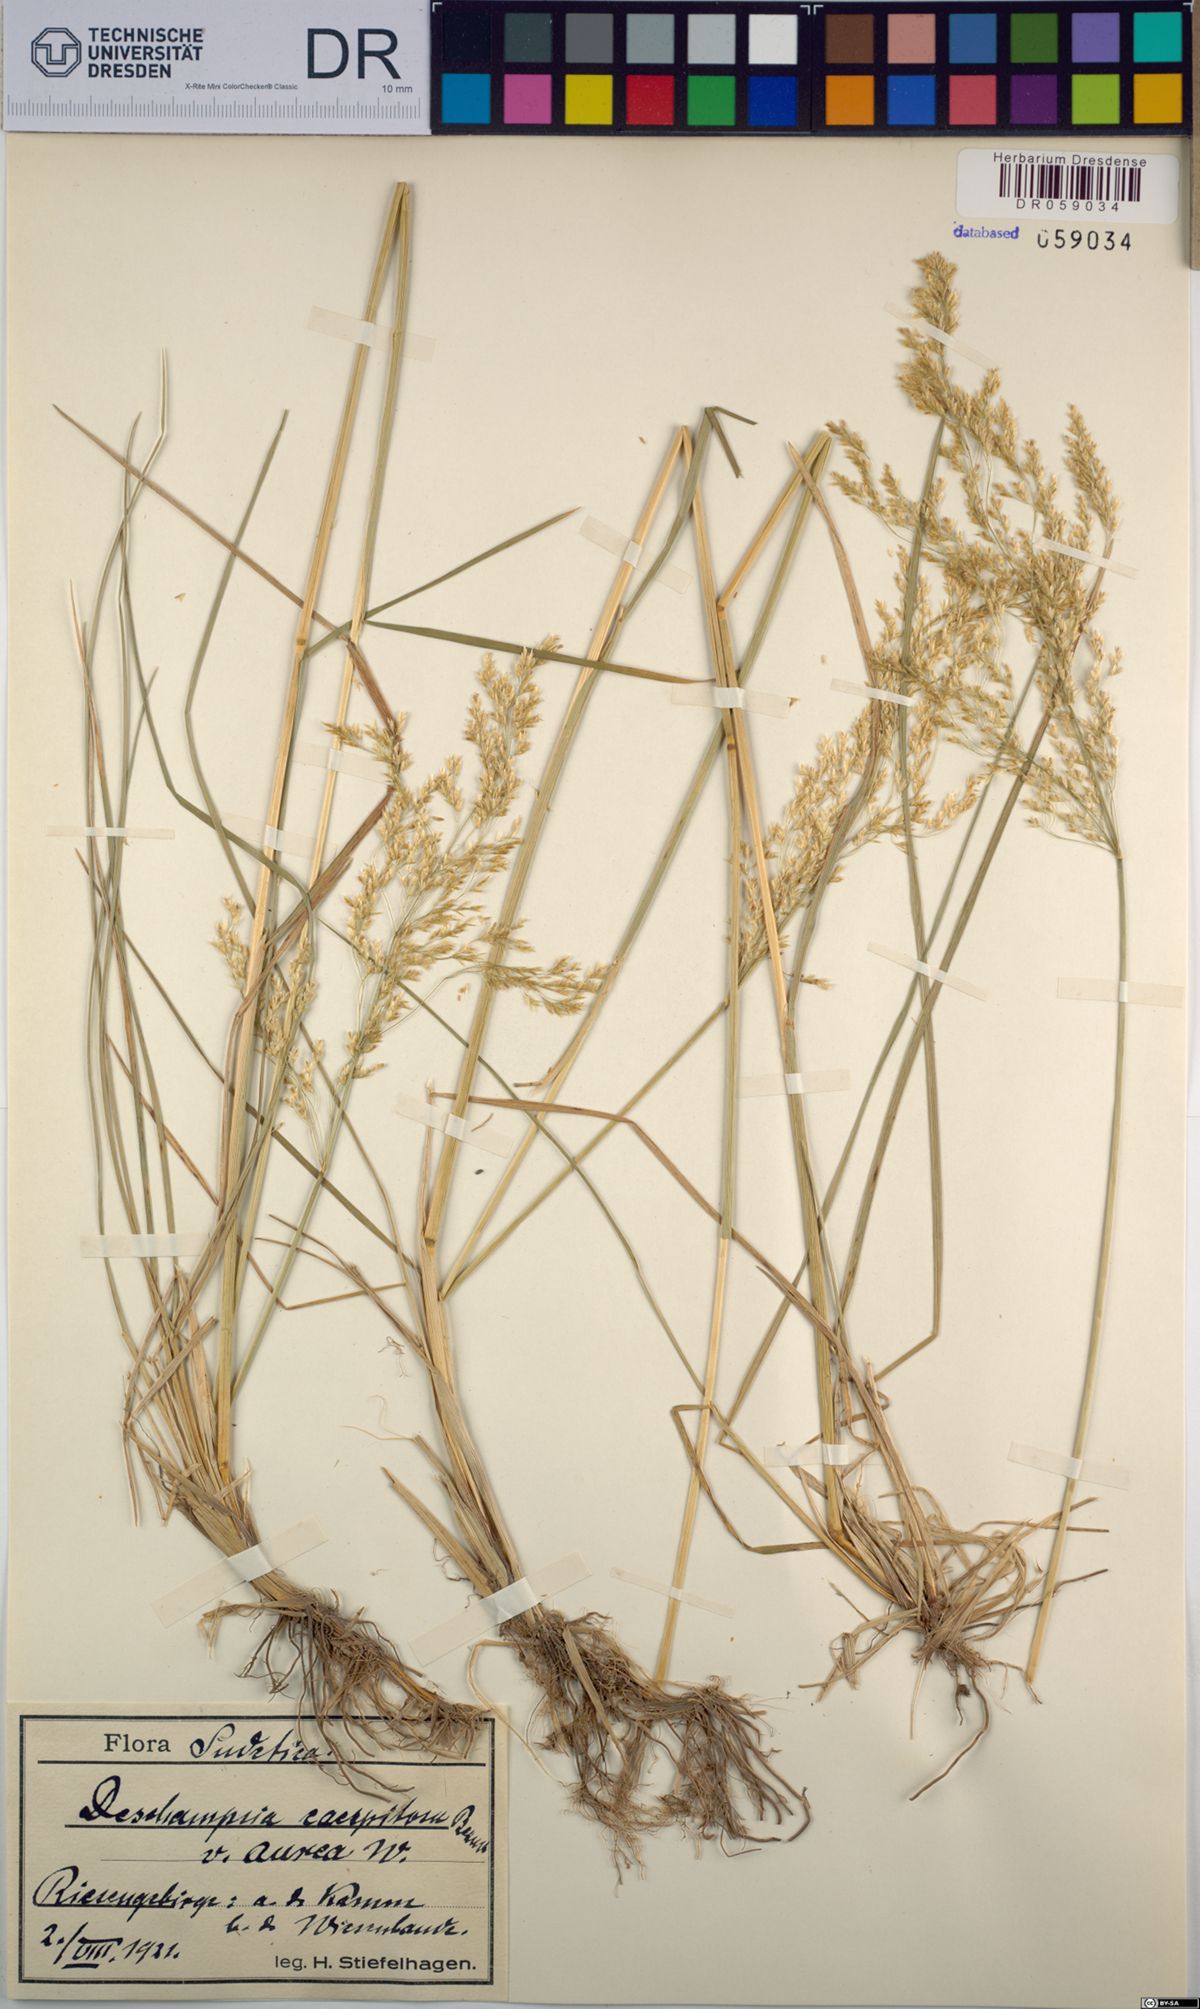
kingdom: Plantae
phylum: Tracheophyta
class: Liliopsida
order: Poales
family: Poaceae
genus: Deschampsia
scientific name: Deschampsia cespitosa
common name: Tufted hair-grass
